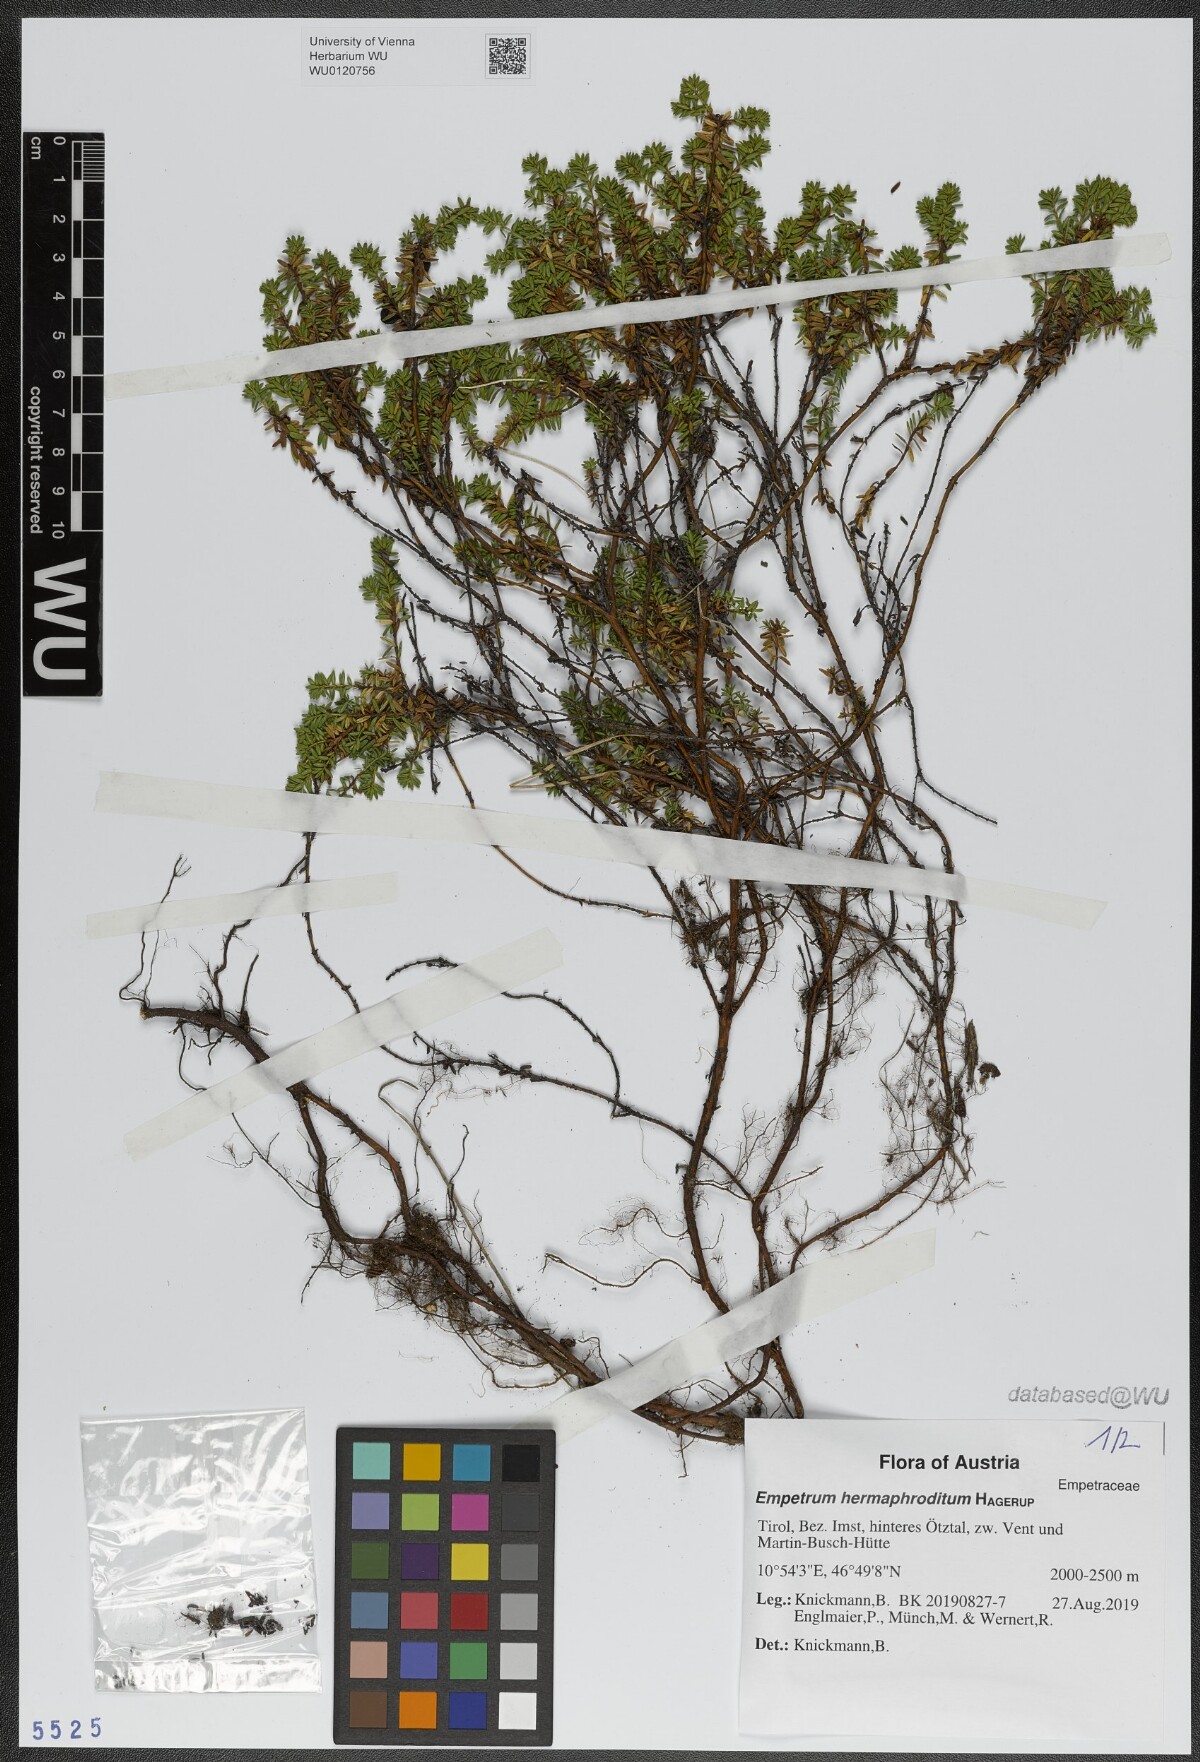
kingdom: Plantae
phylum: Tracheophyta
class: Magnoliopsida
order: Ericales
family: Ericaceae
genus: Empetrum
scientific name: Empetrum hermaphroditum
